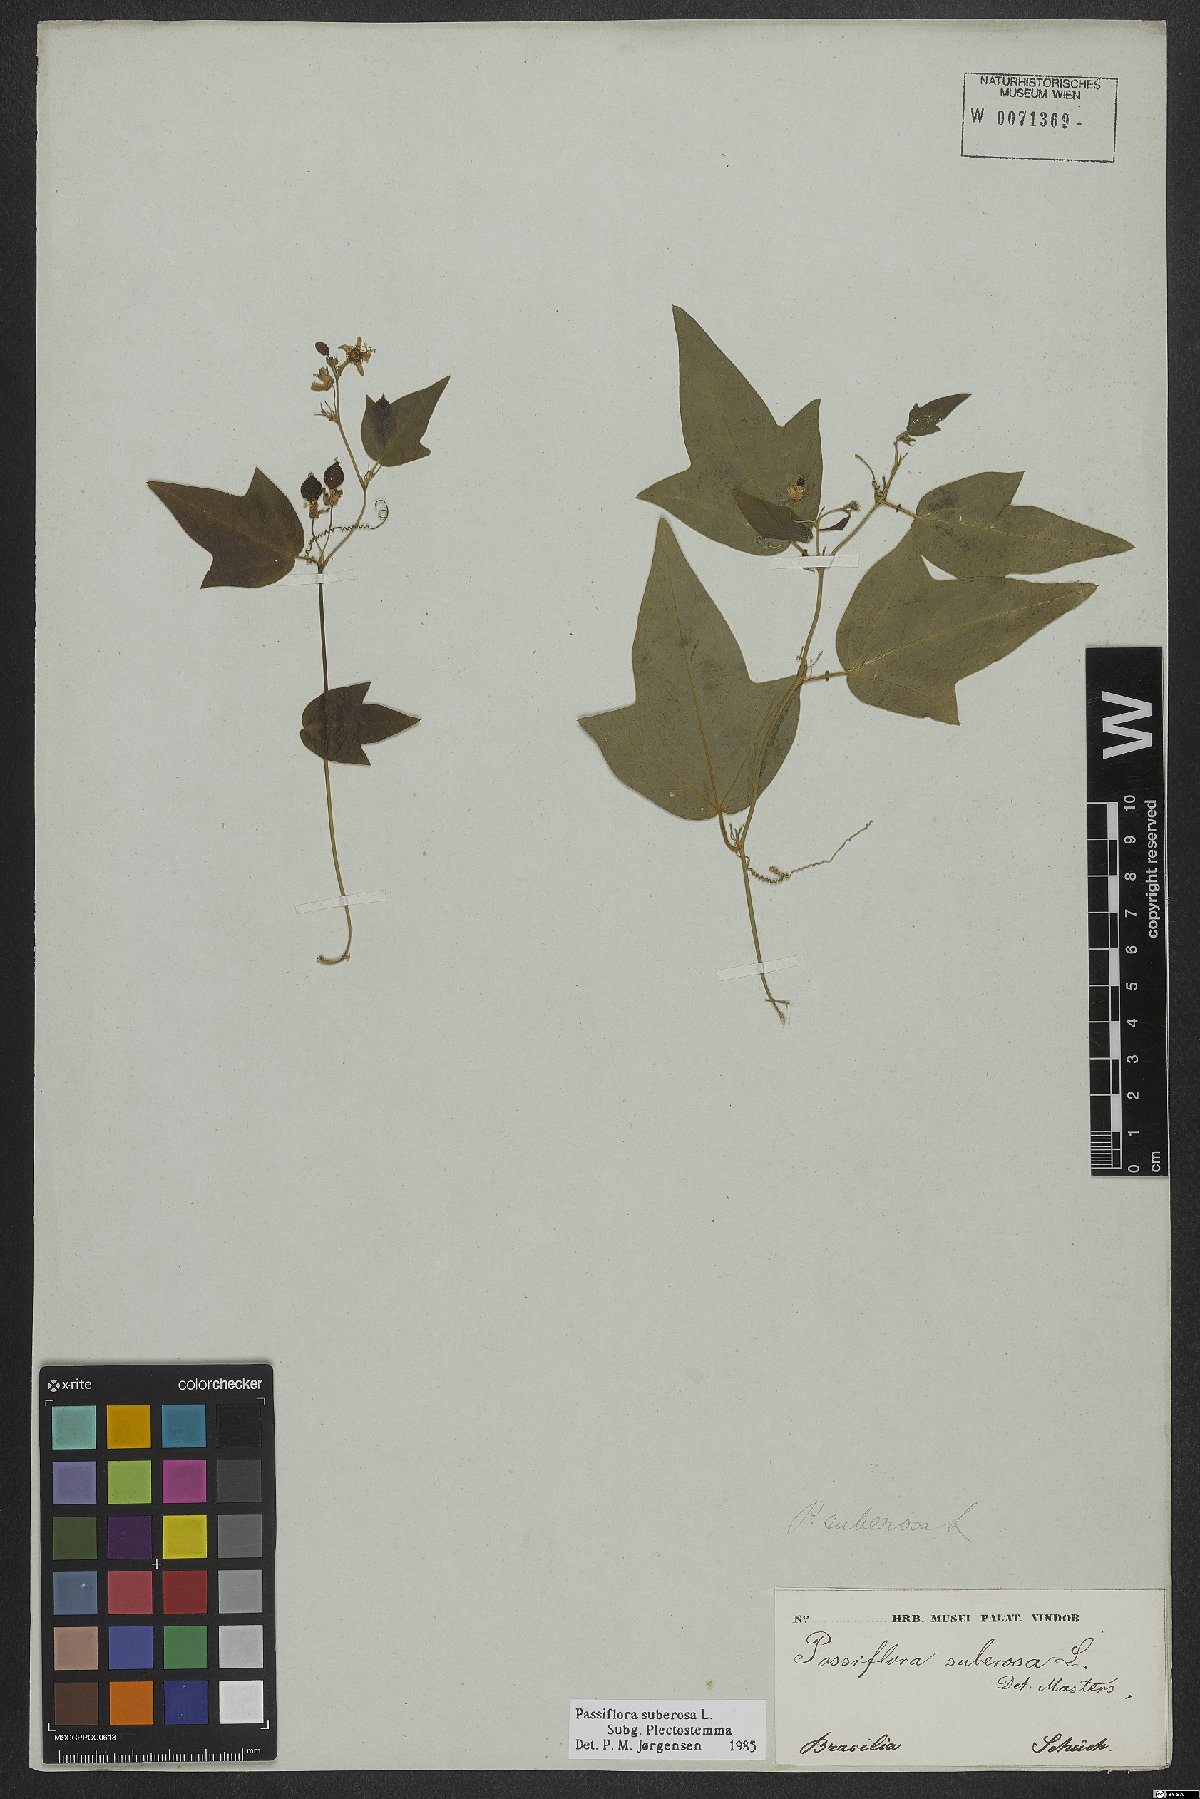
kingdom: Plantae
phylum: Tracheophyta
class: Magnoliopsida
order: Malpighiales
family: Passifloraceae
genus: Passiflora
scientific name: Passiflora suberosa
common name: Wild passionfruit
